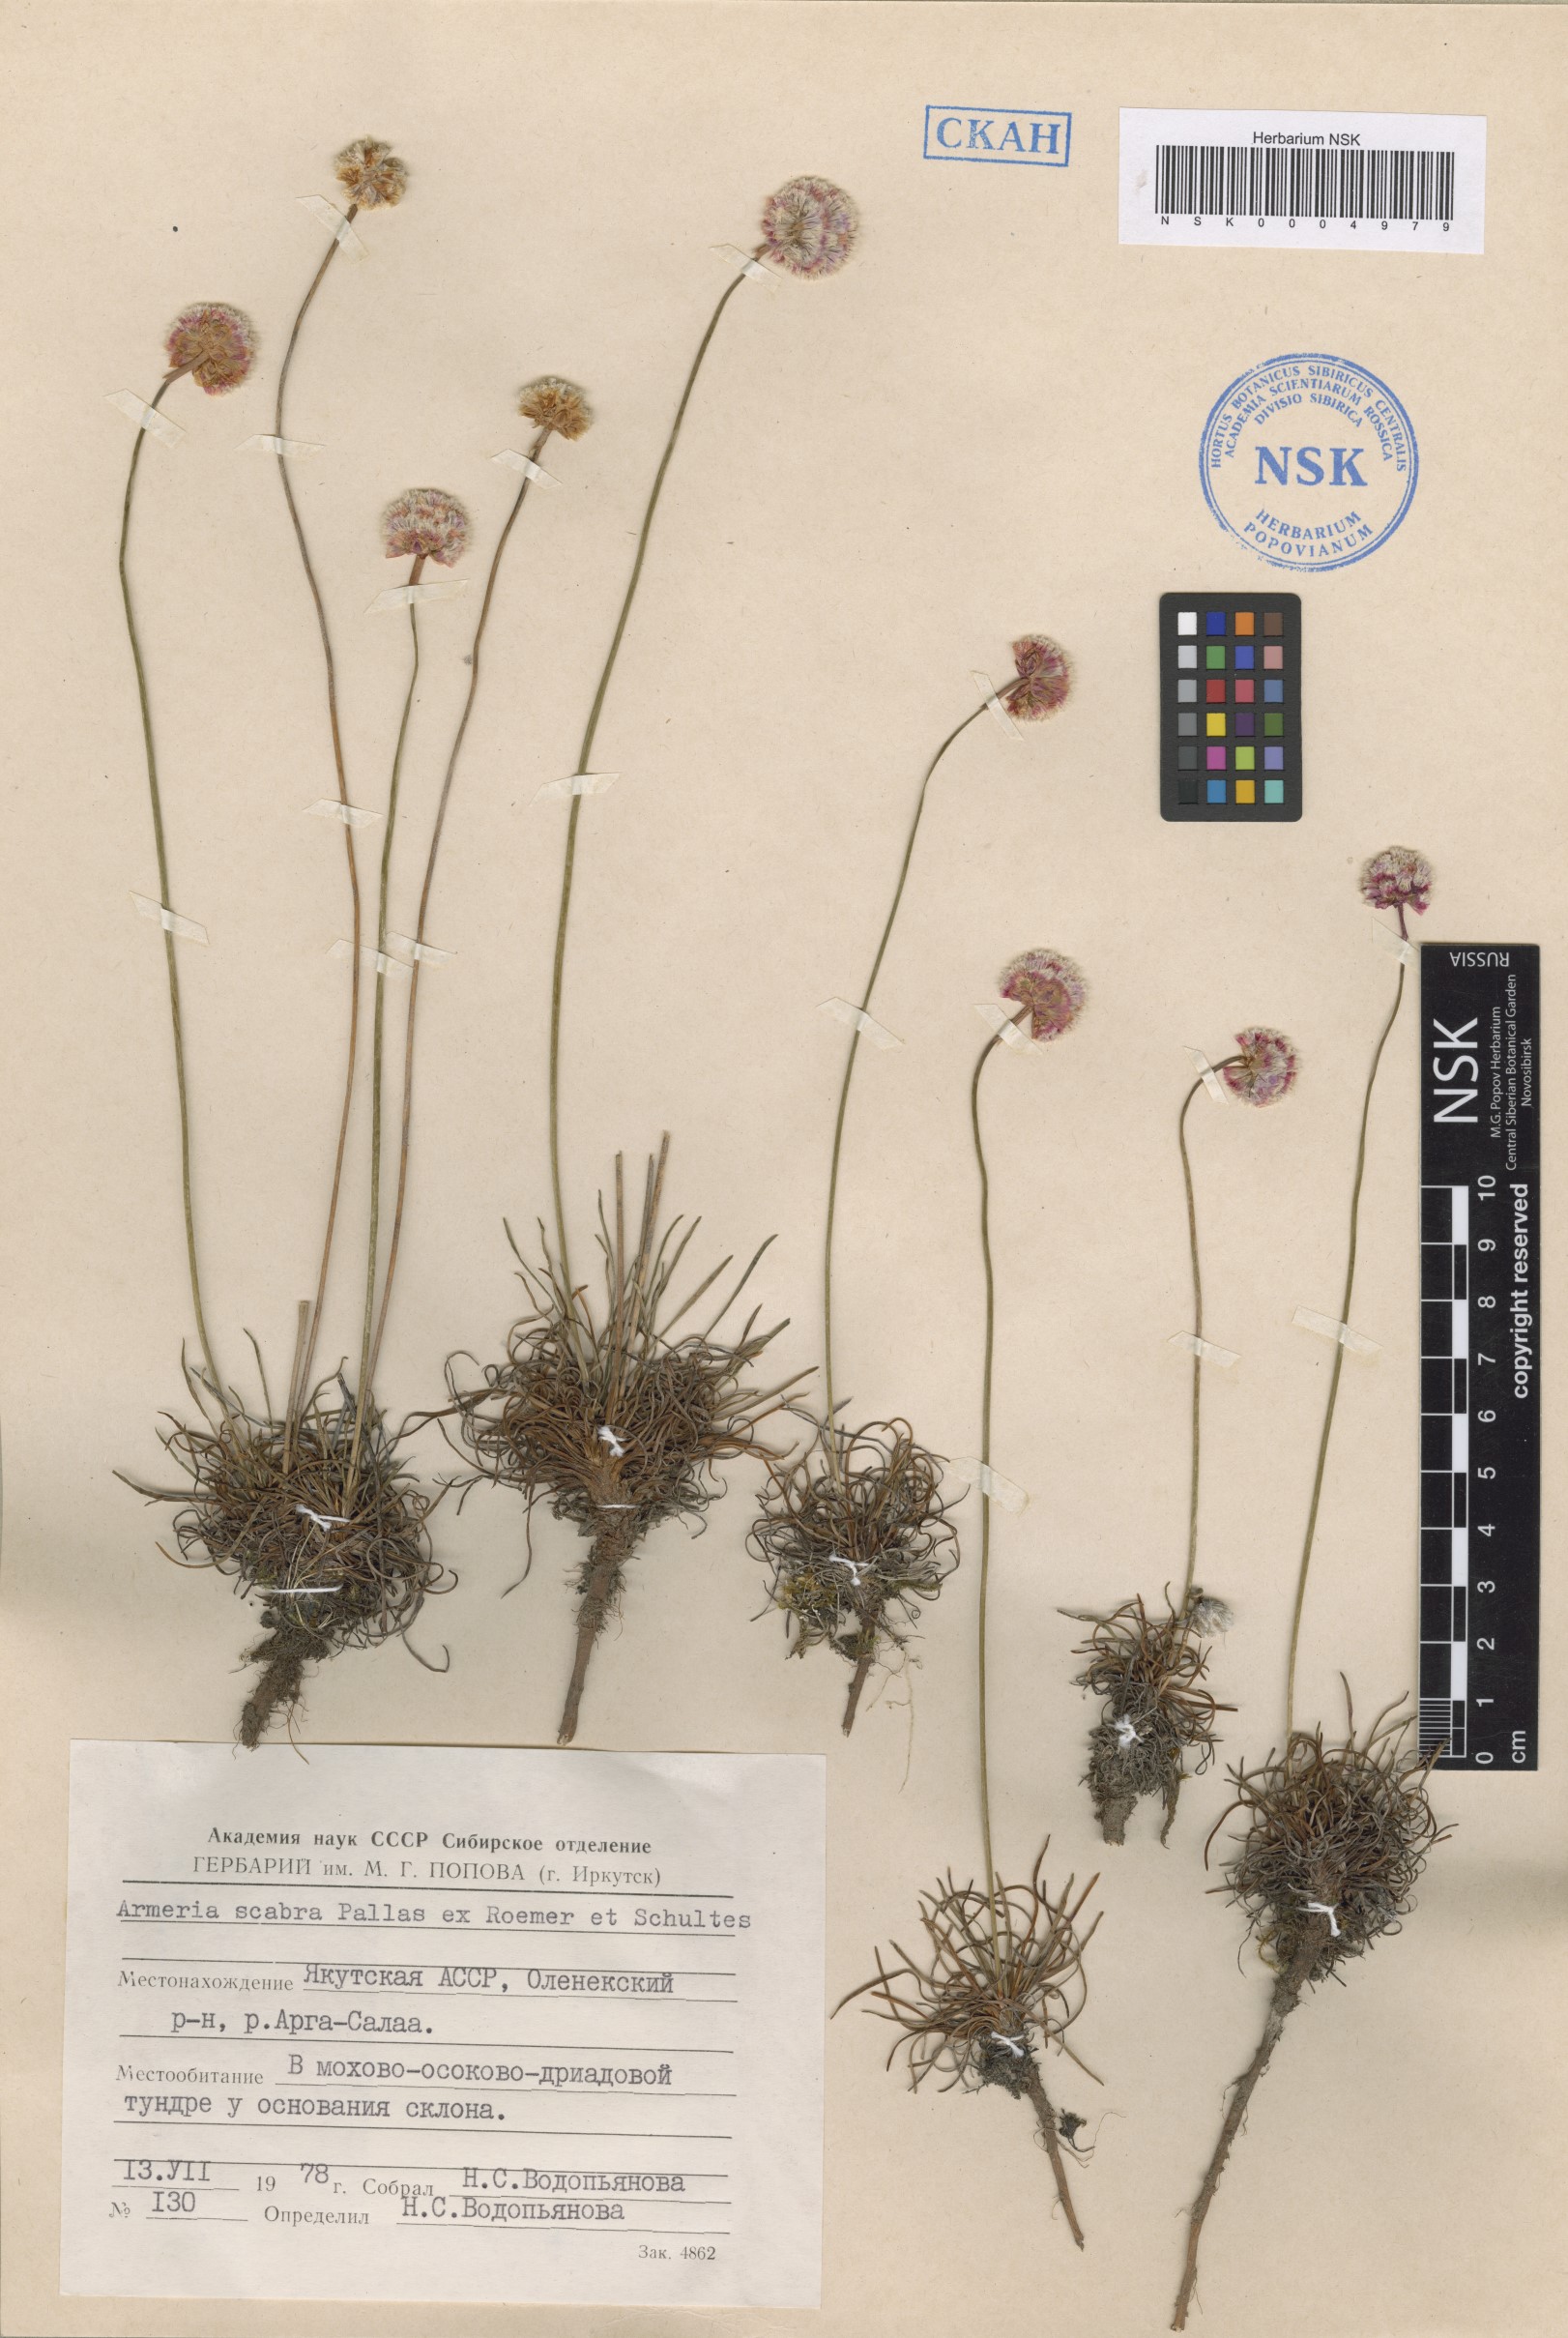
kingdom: Plantae
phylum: Tracheophyta
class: Magnoliopsida
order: Caryophyllales
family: Plumbaginaceae
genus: Armeria
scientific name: Armeria maritima
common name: Thrift
